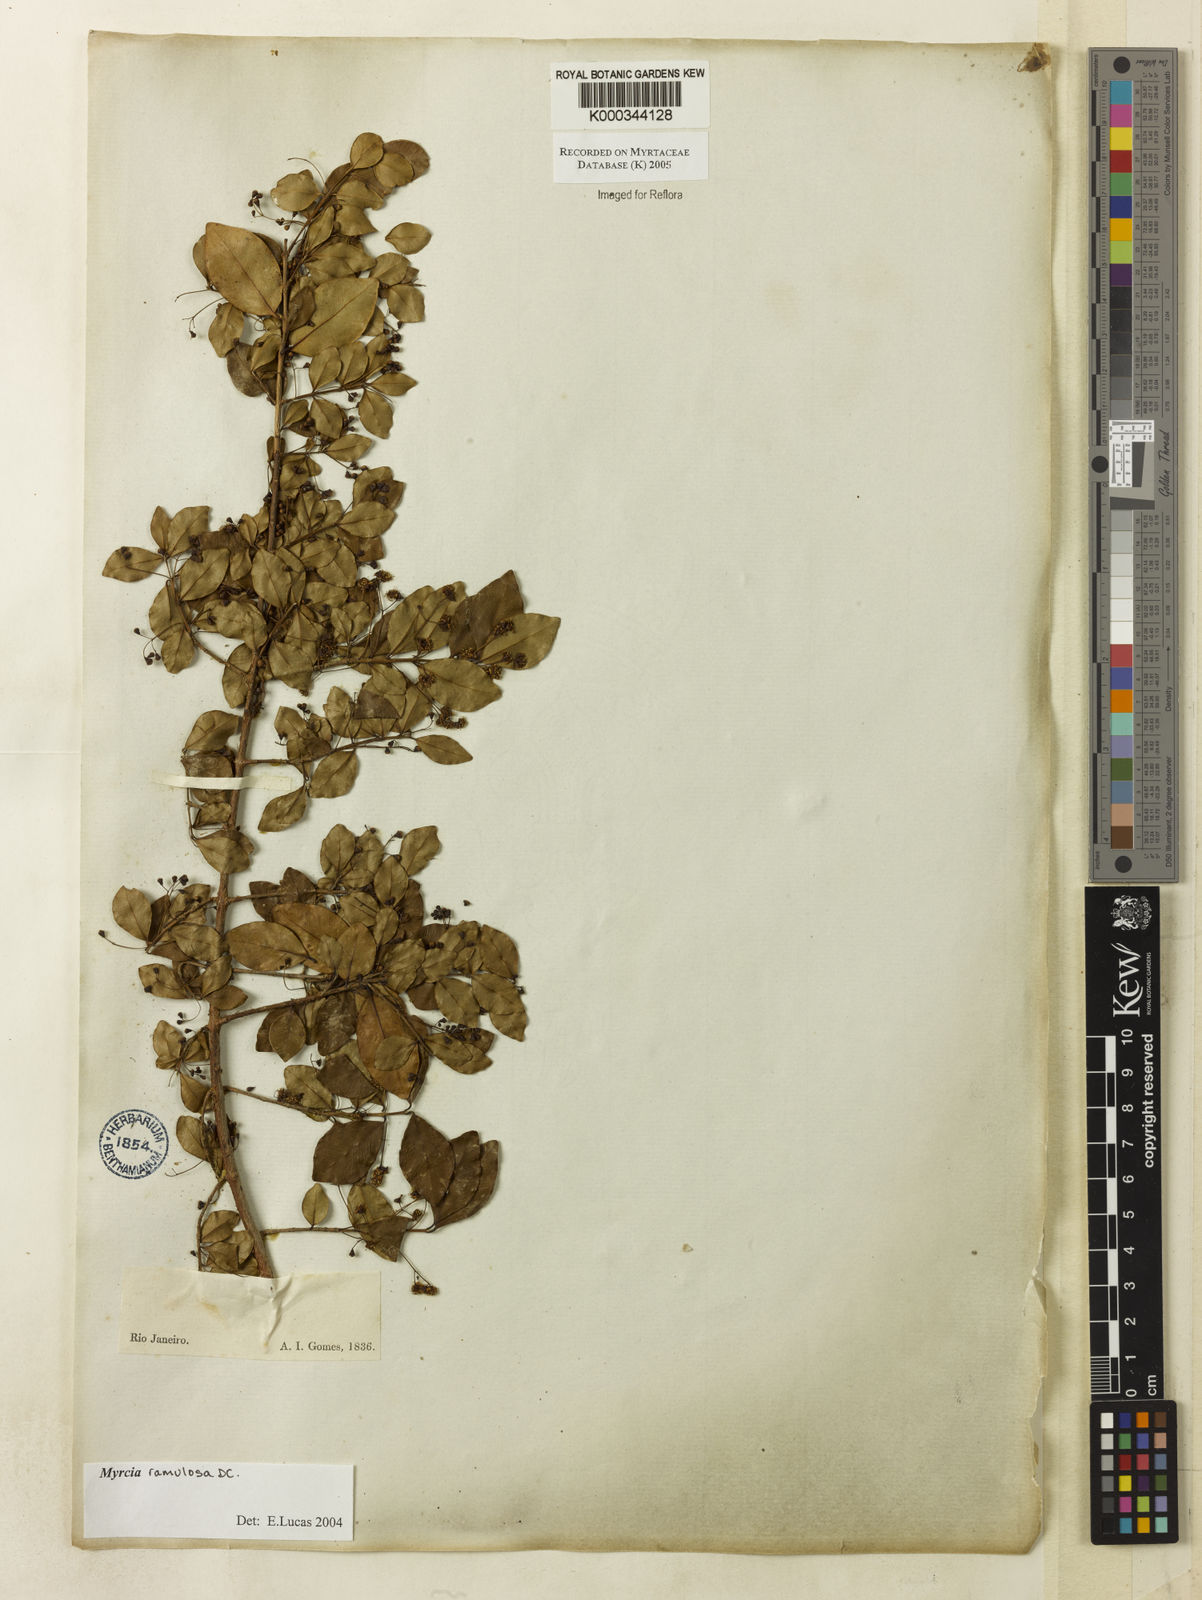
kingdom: Plantae
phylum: Tracheophyta
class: Magnoliopsida
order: Myrtales
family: Myrtaceae
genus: Myrcia
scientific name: Myrcia selloi
